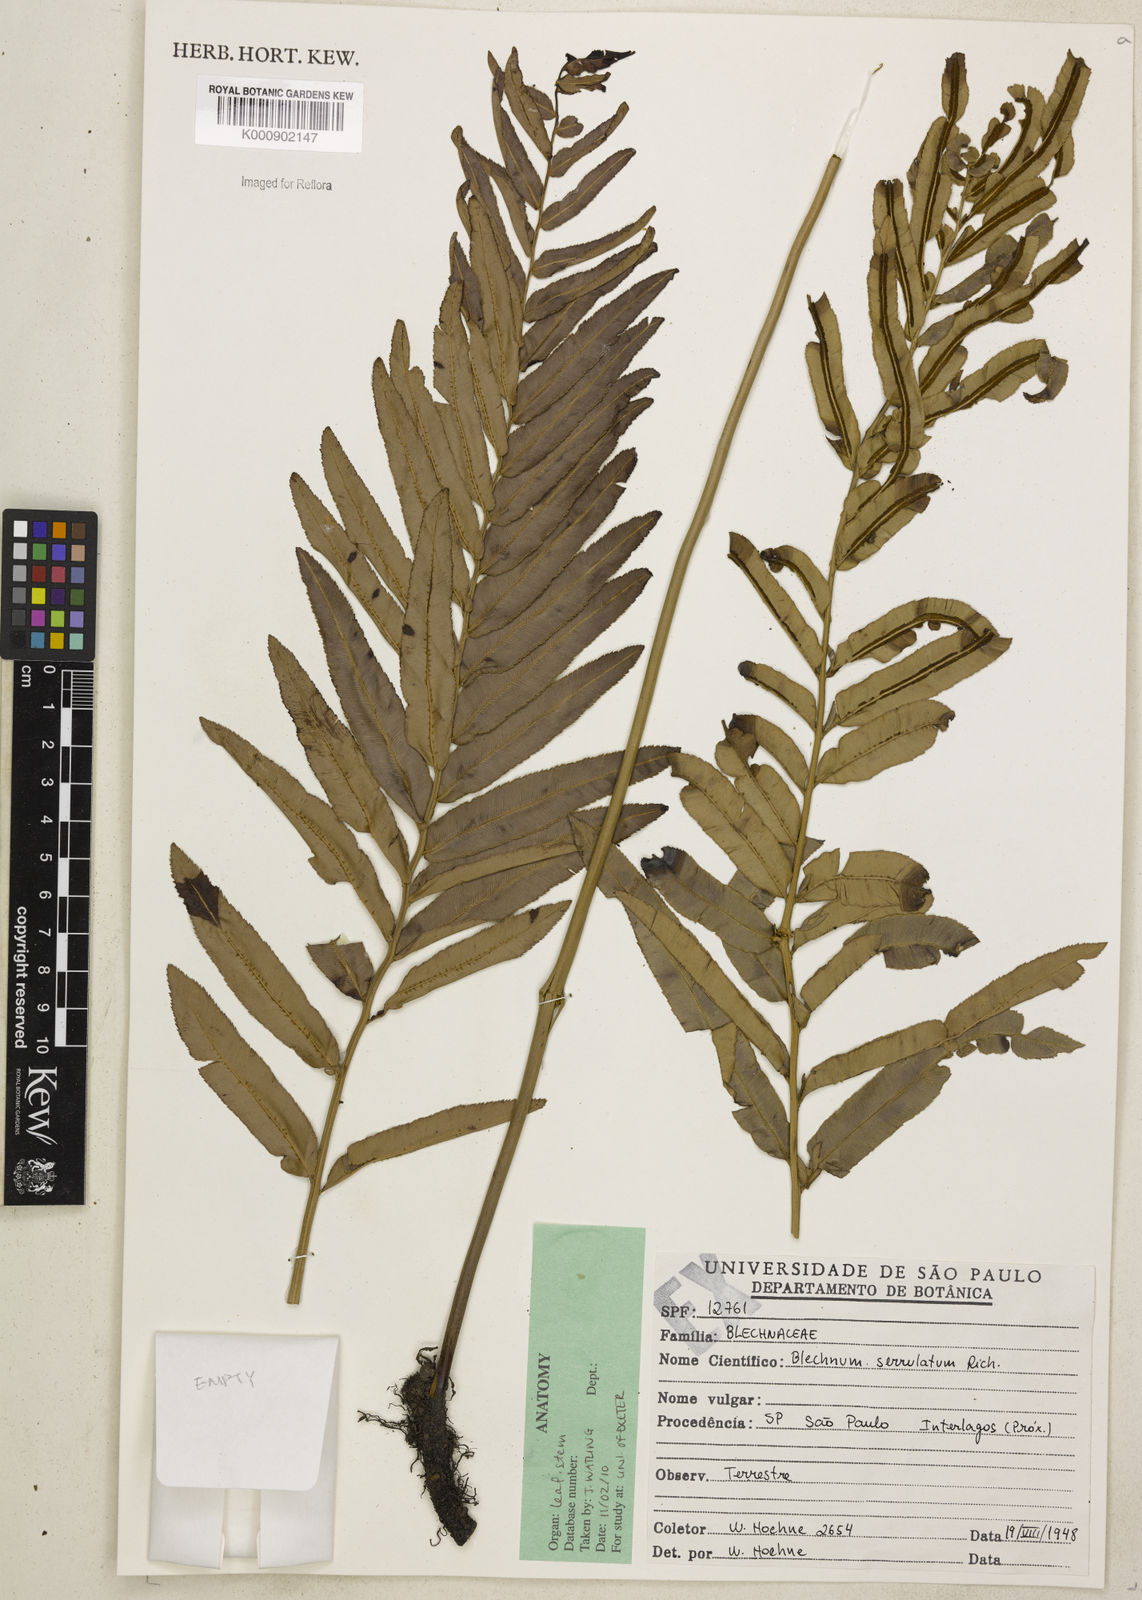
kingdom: Plantae
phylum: Tracheophyta
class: Polypodiopsida
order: Polypodiales
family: Blechnaceae
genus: Telmatoblechnum
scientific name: Telmatoblechnum serrulatum
